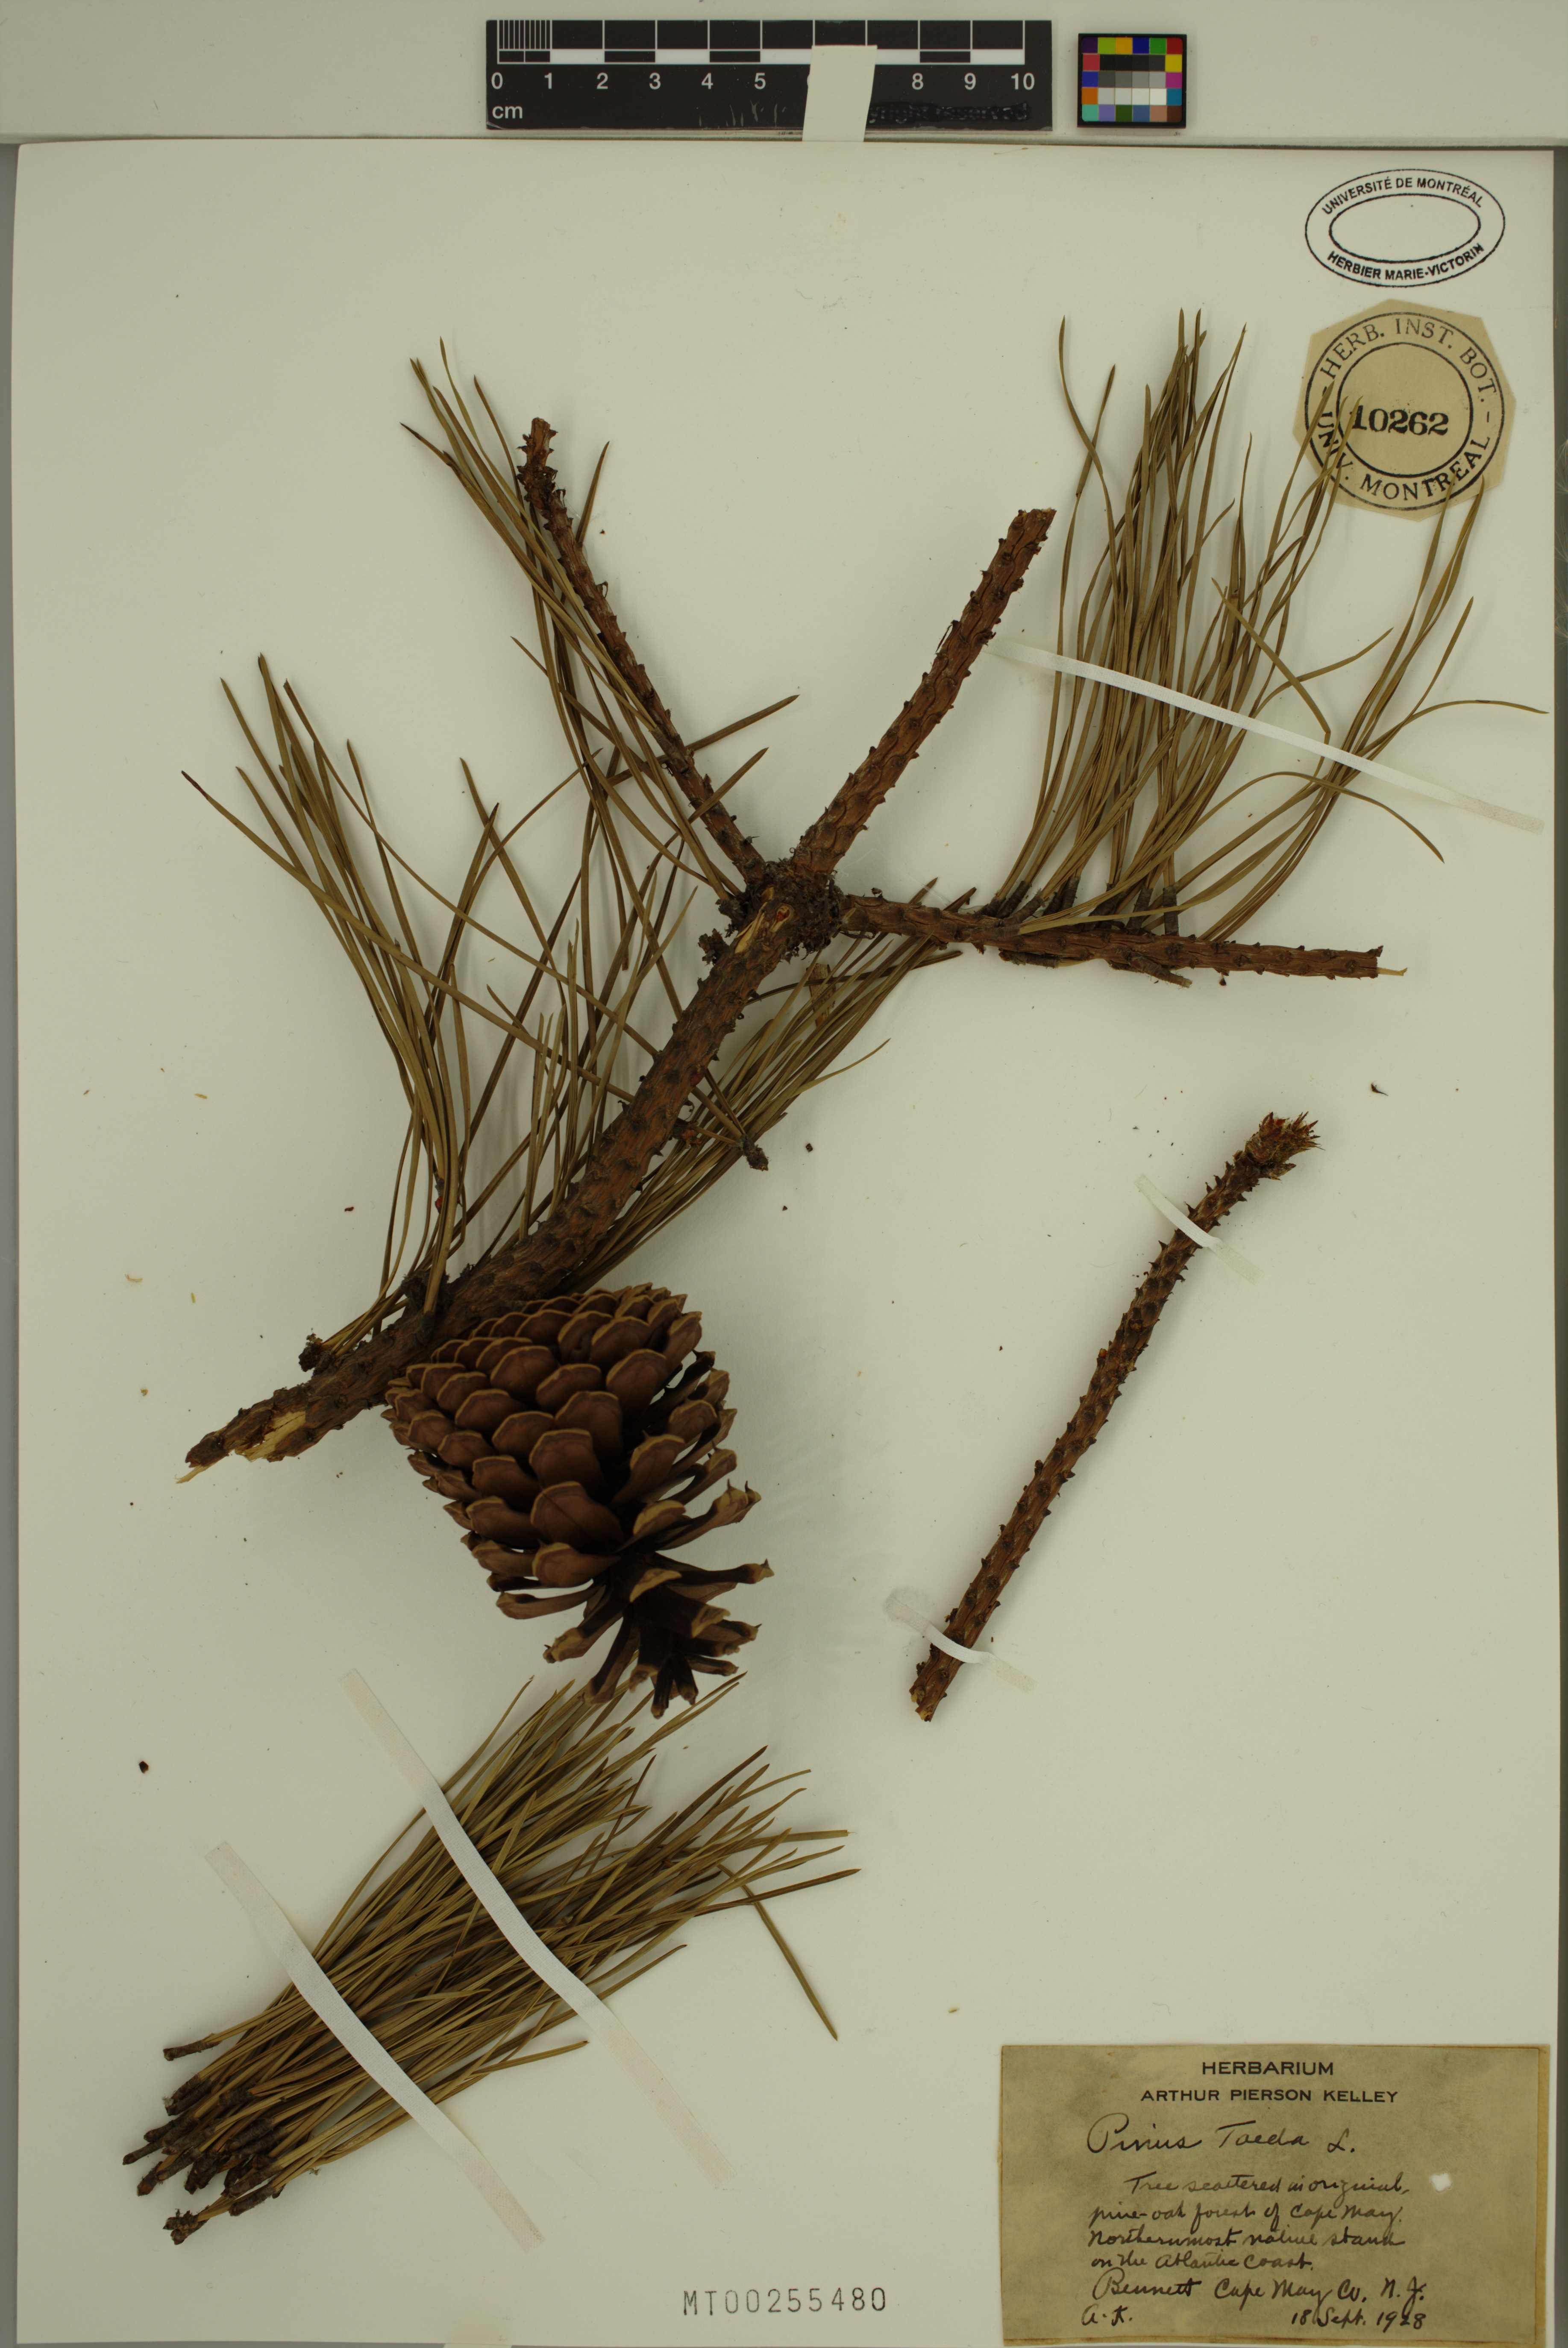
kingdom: Plantae
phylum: Tracheophyta
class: Pinopsida
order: Pinales
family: Pinaceae
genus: Pinus
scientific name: Pinus taeda
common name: Loblolly pine
